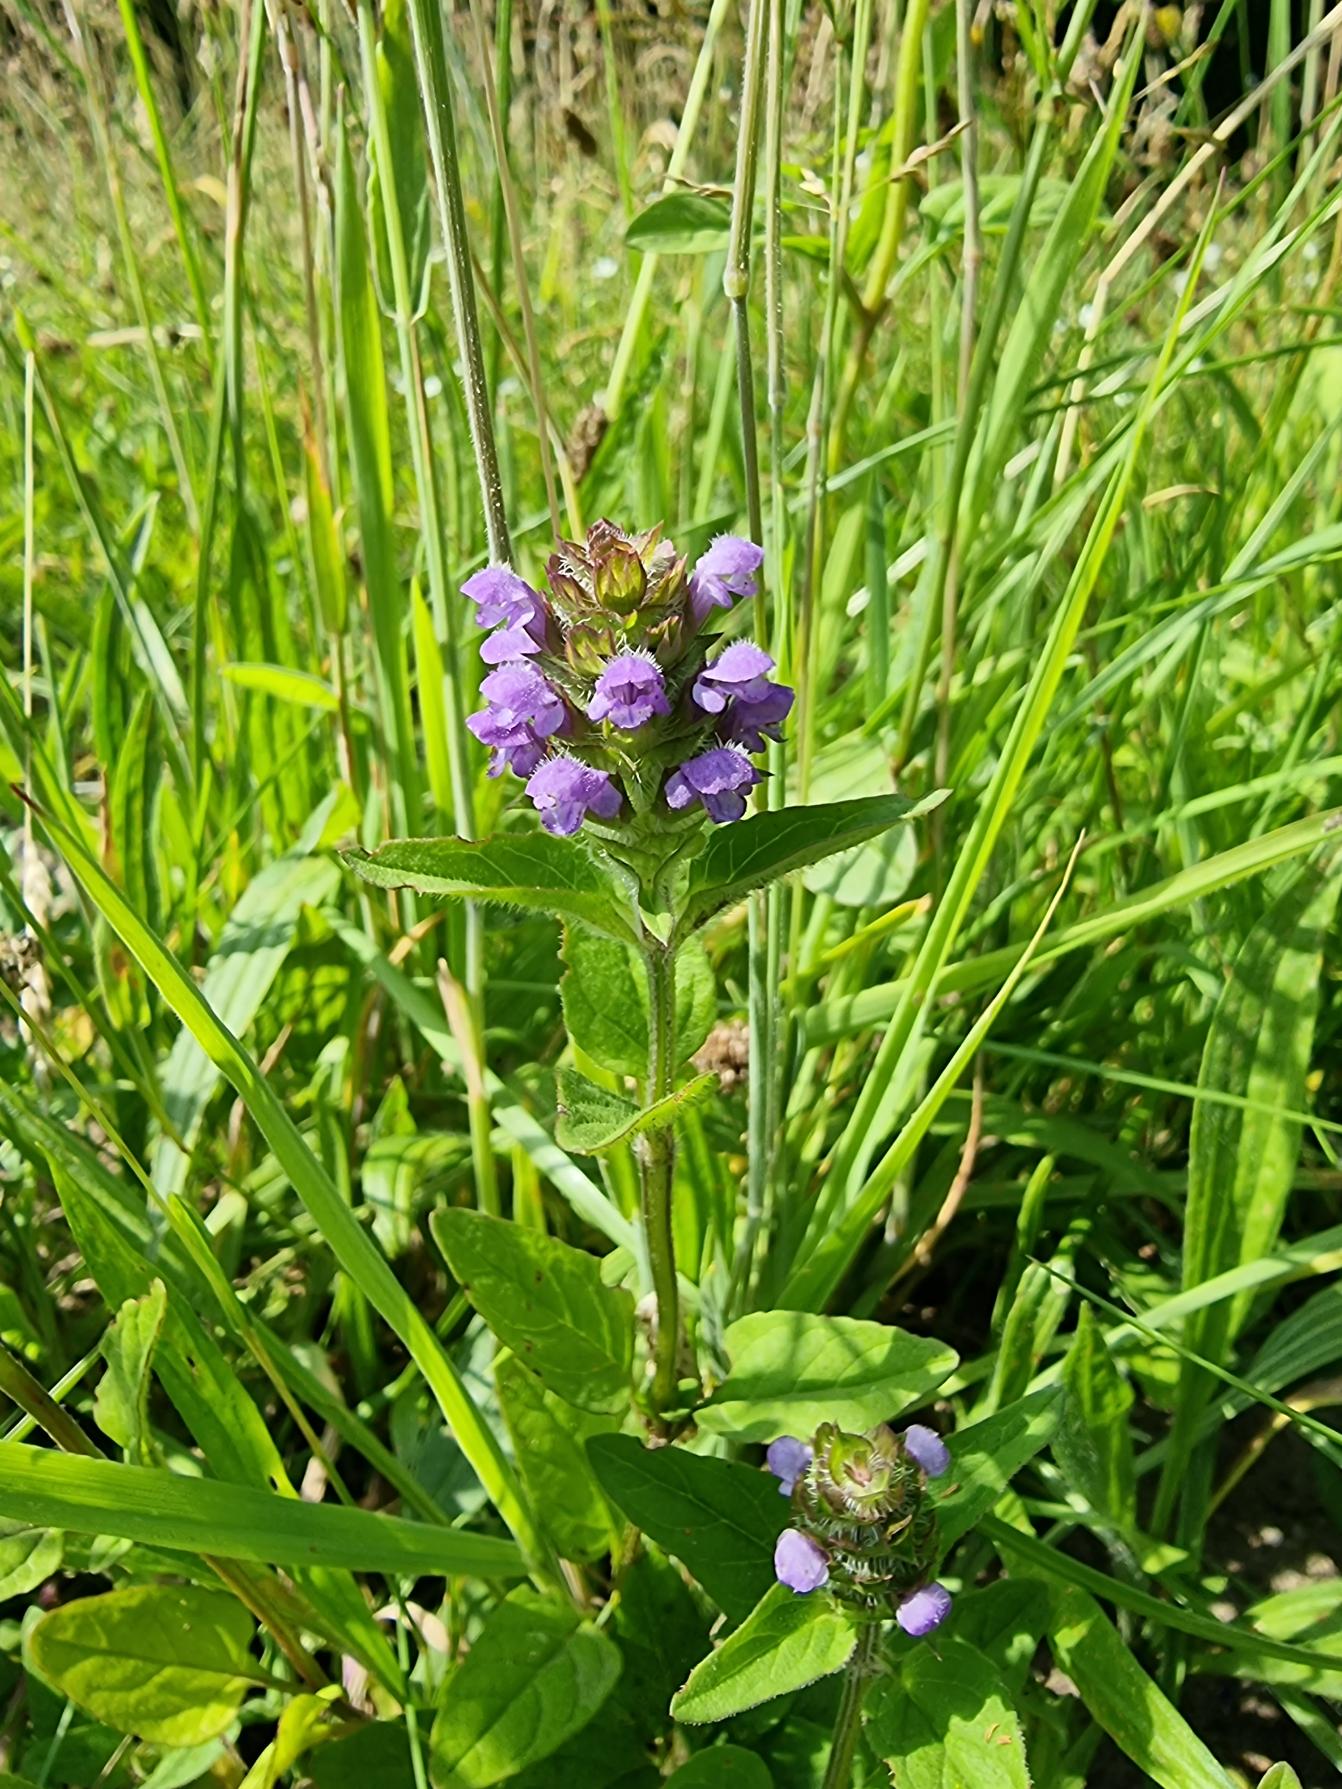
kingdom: Plantae
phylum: Tracheophyta
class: Magnoliopsida
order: Lamiales
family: Lamiaceae
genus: Prunella
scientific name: Prunella vulgaris
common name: Almindelig brunelle
